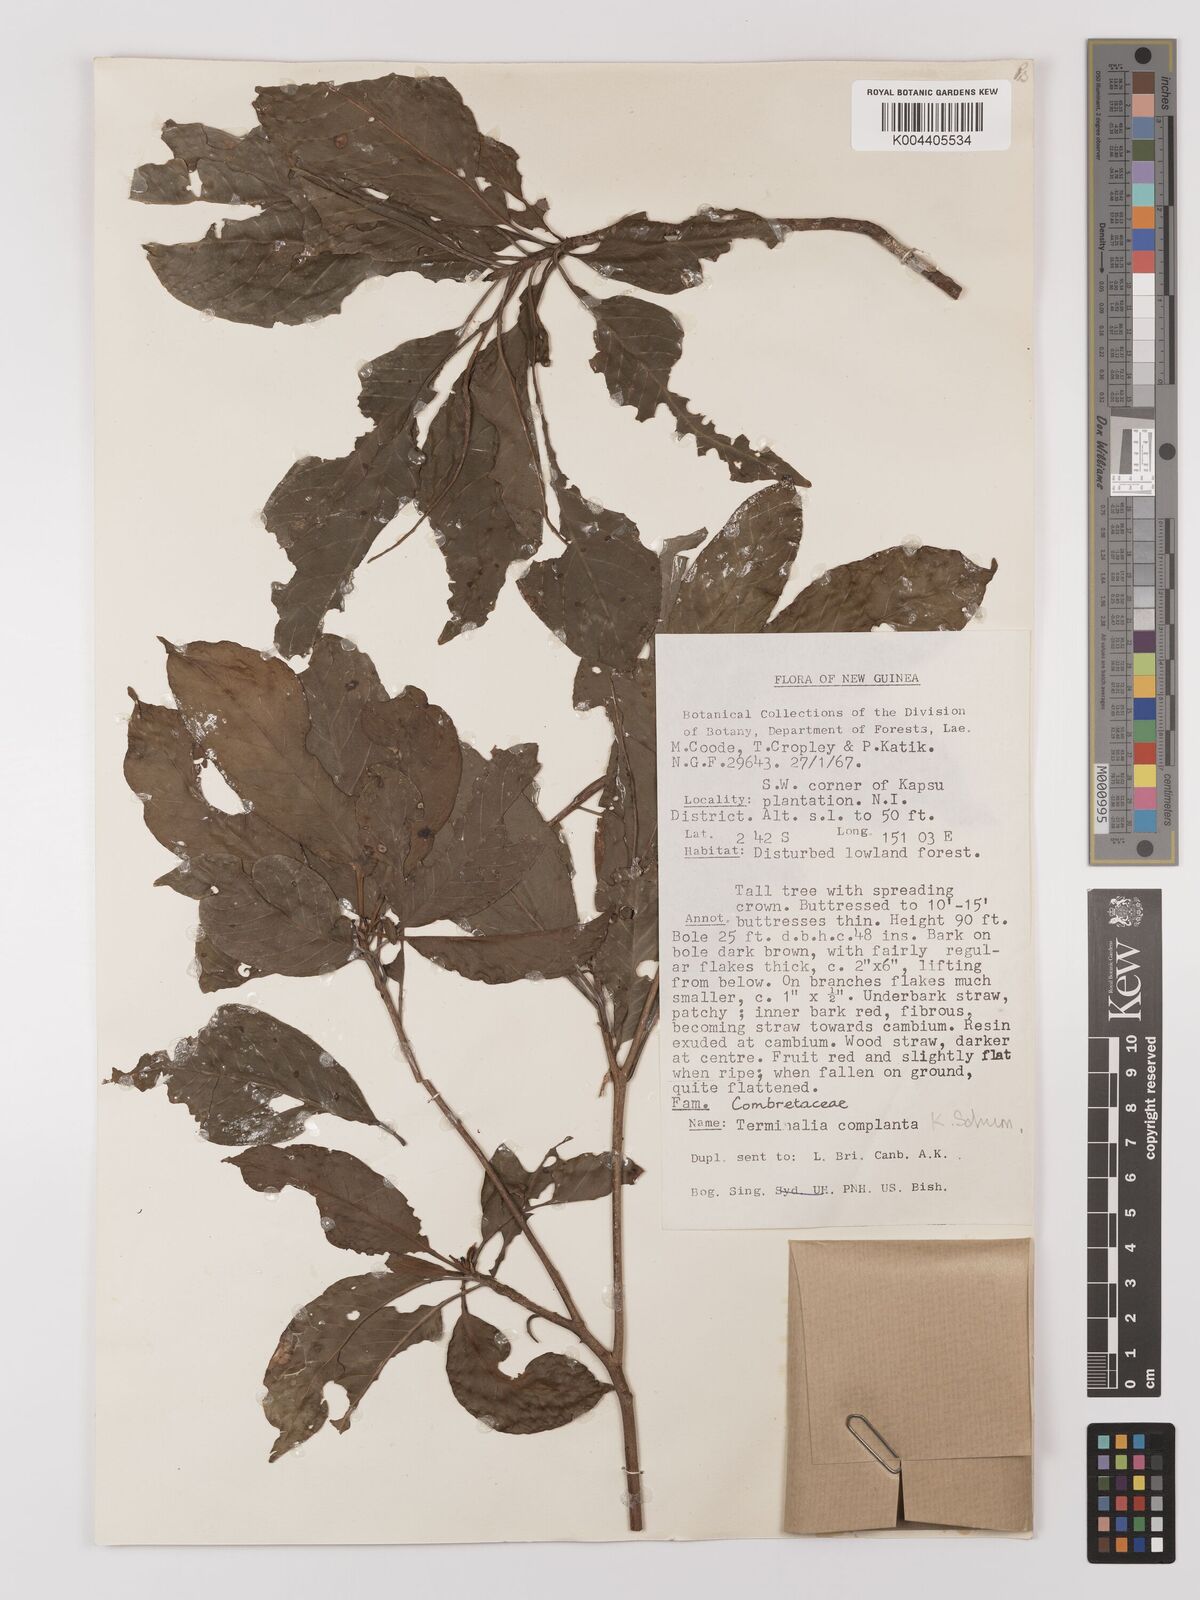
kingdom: Plantae
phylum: Tracheophyta
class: Magnoliopsida
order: Myrtales
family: Combretaceae
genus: Terminalia
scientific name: Terminalia complanata
